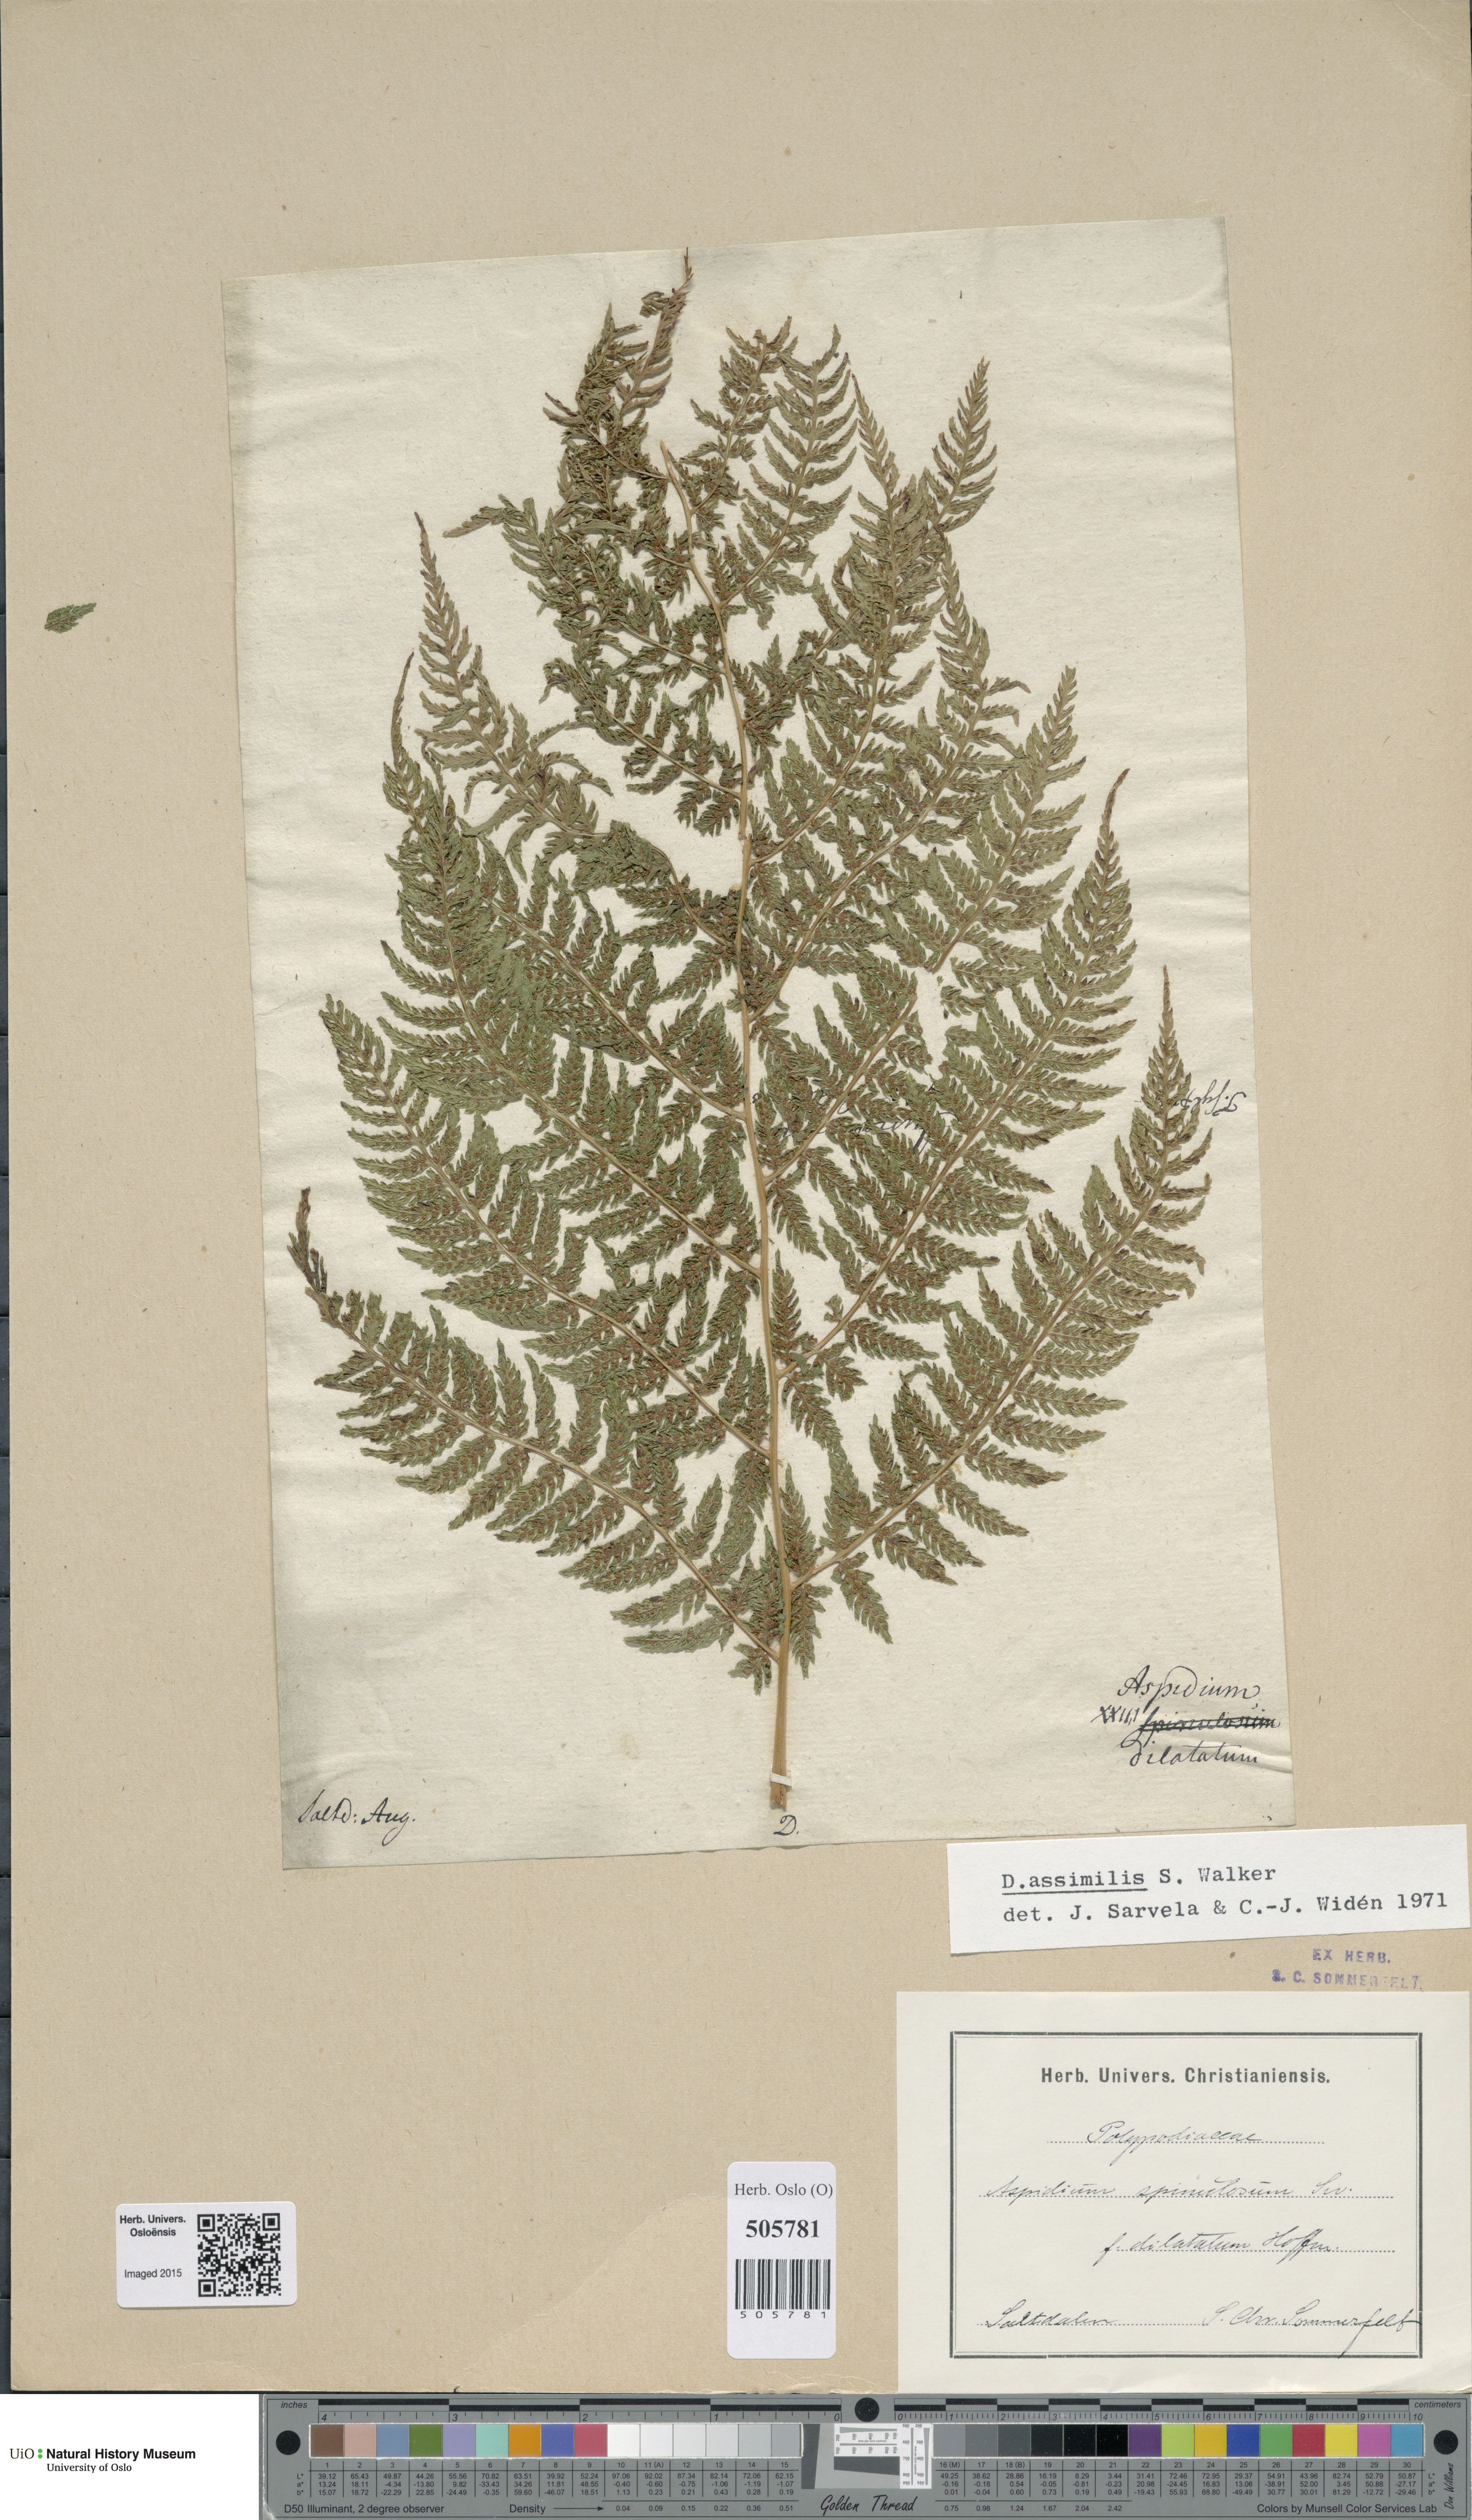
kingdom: Plantae
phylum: Tracheophyta
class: Polypodiopsida
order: Polypodiales
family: Dryopteridaceae
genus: Dryopteris
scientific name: Dryopteris expansa
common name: Northern buckler fern
